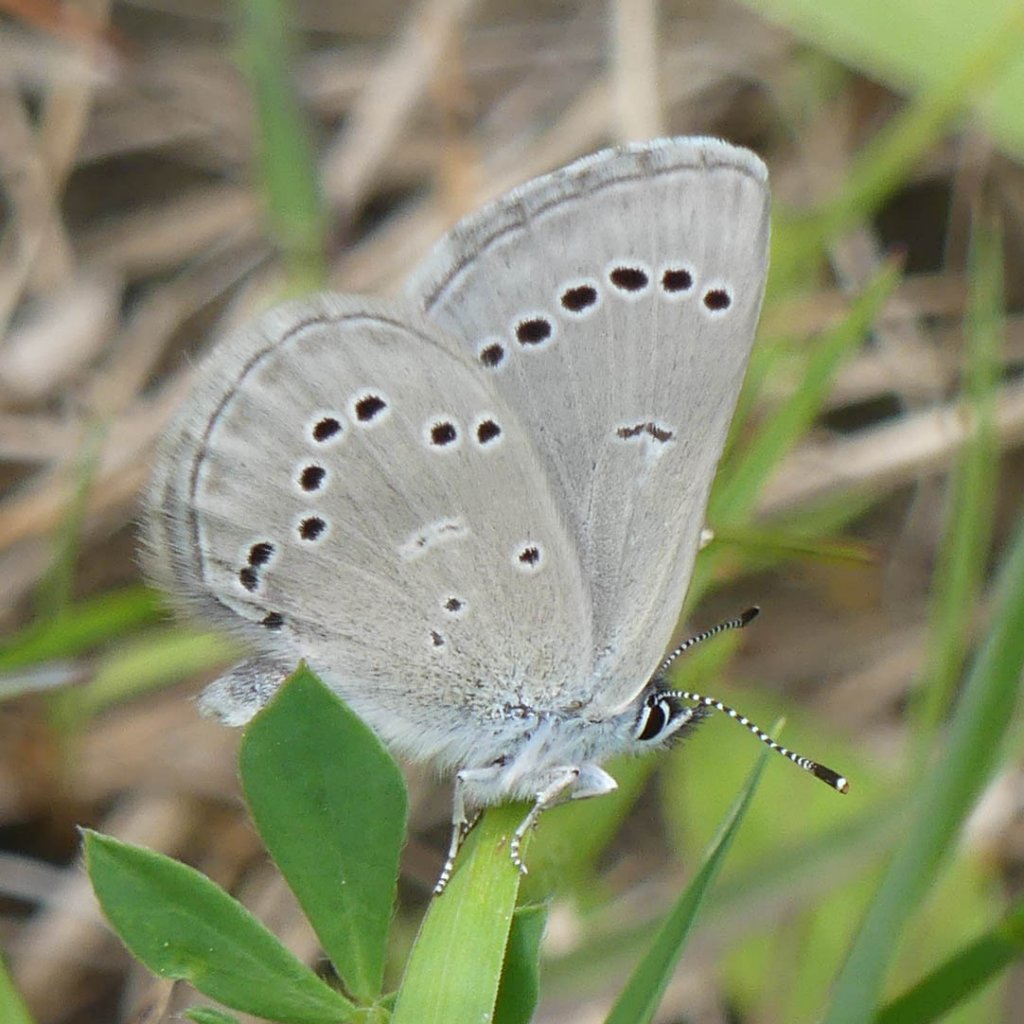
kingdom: Animalia
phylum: Arthropoda
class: Insecta
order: Lepidoptera
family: Lycaenidae
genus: Glaucopsyche
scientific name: Glaucopsyche lygdamus
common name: Silvery Blue
